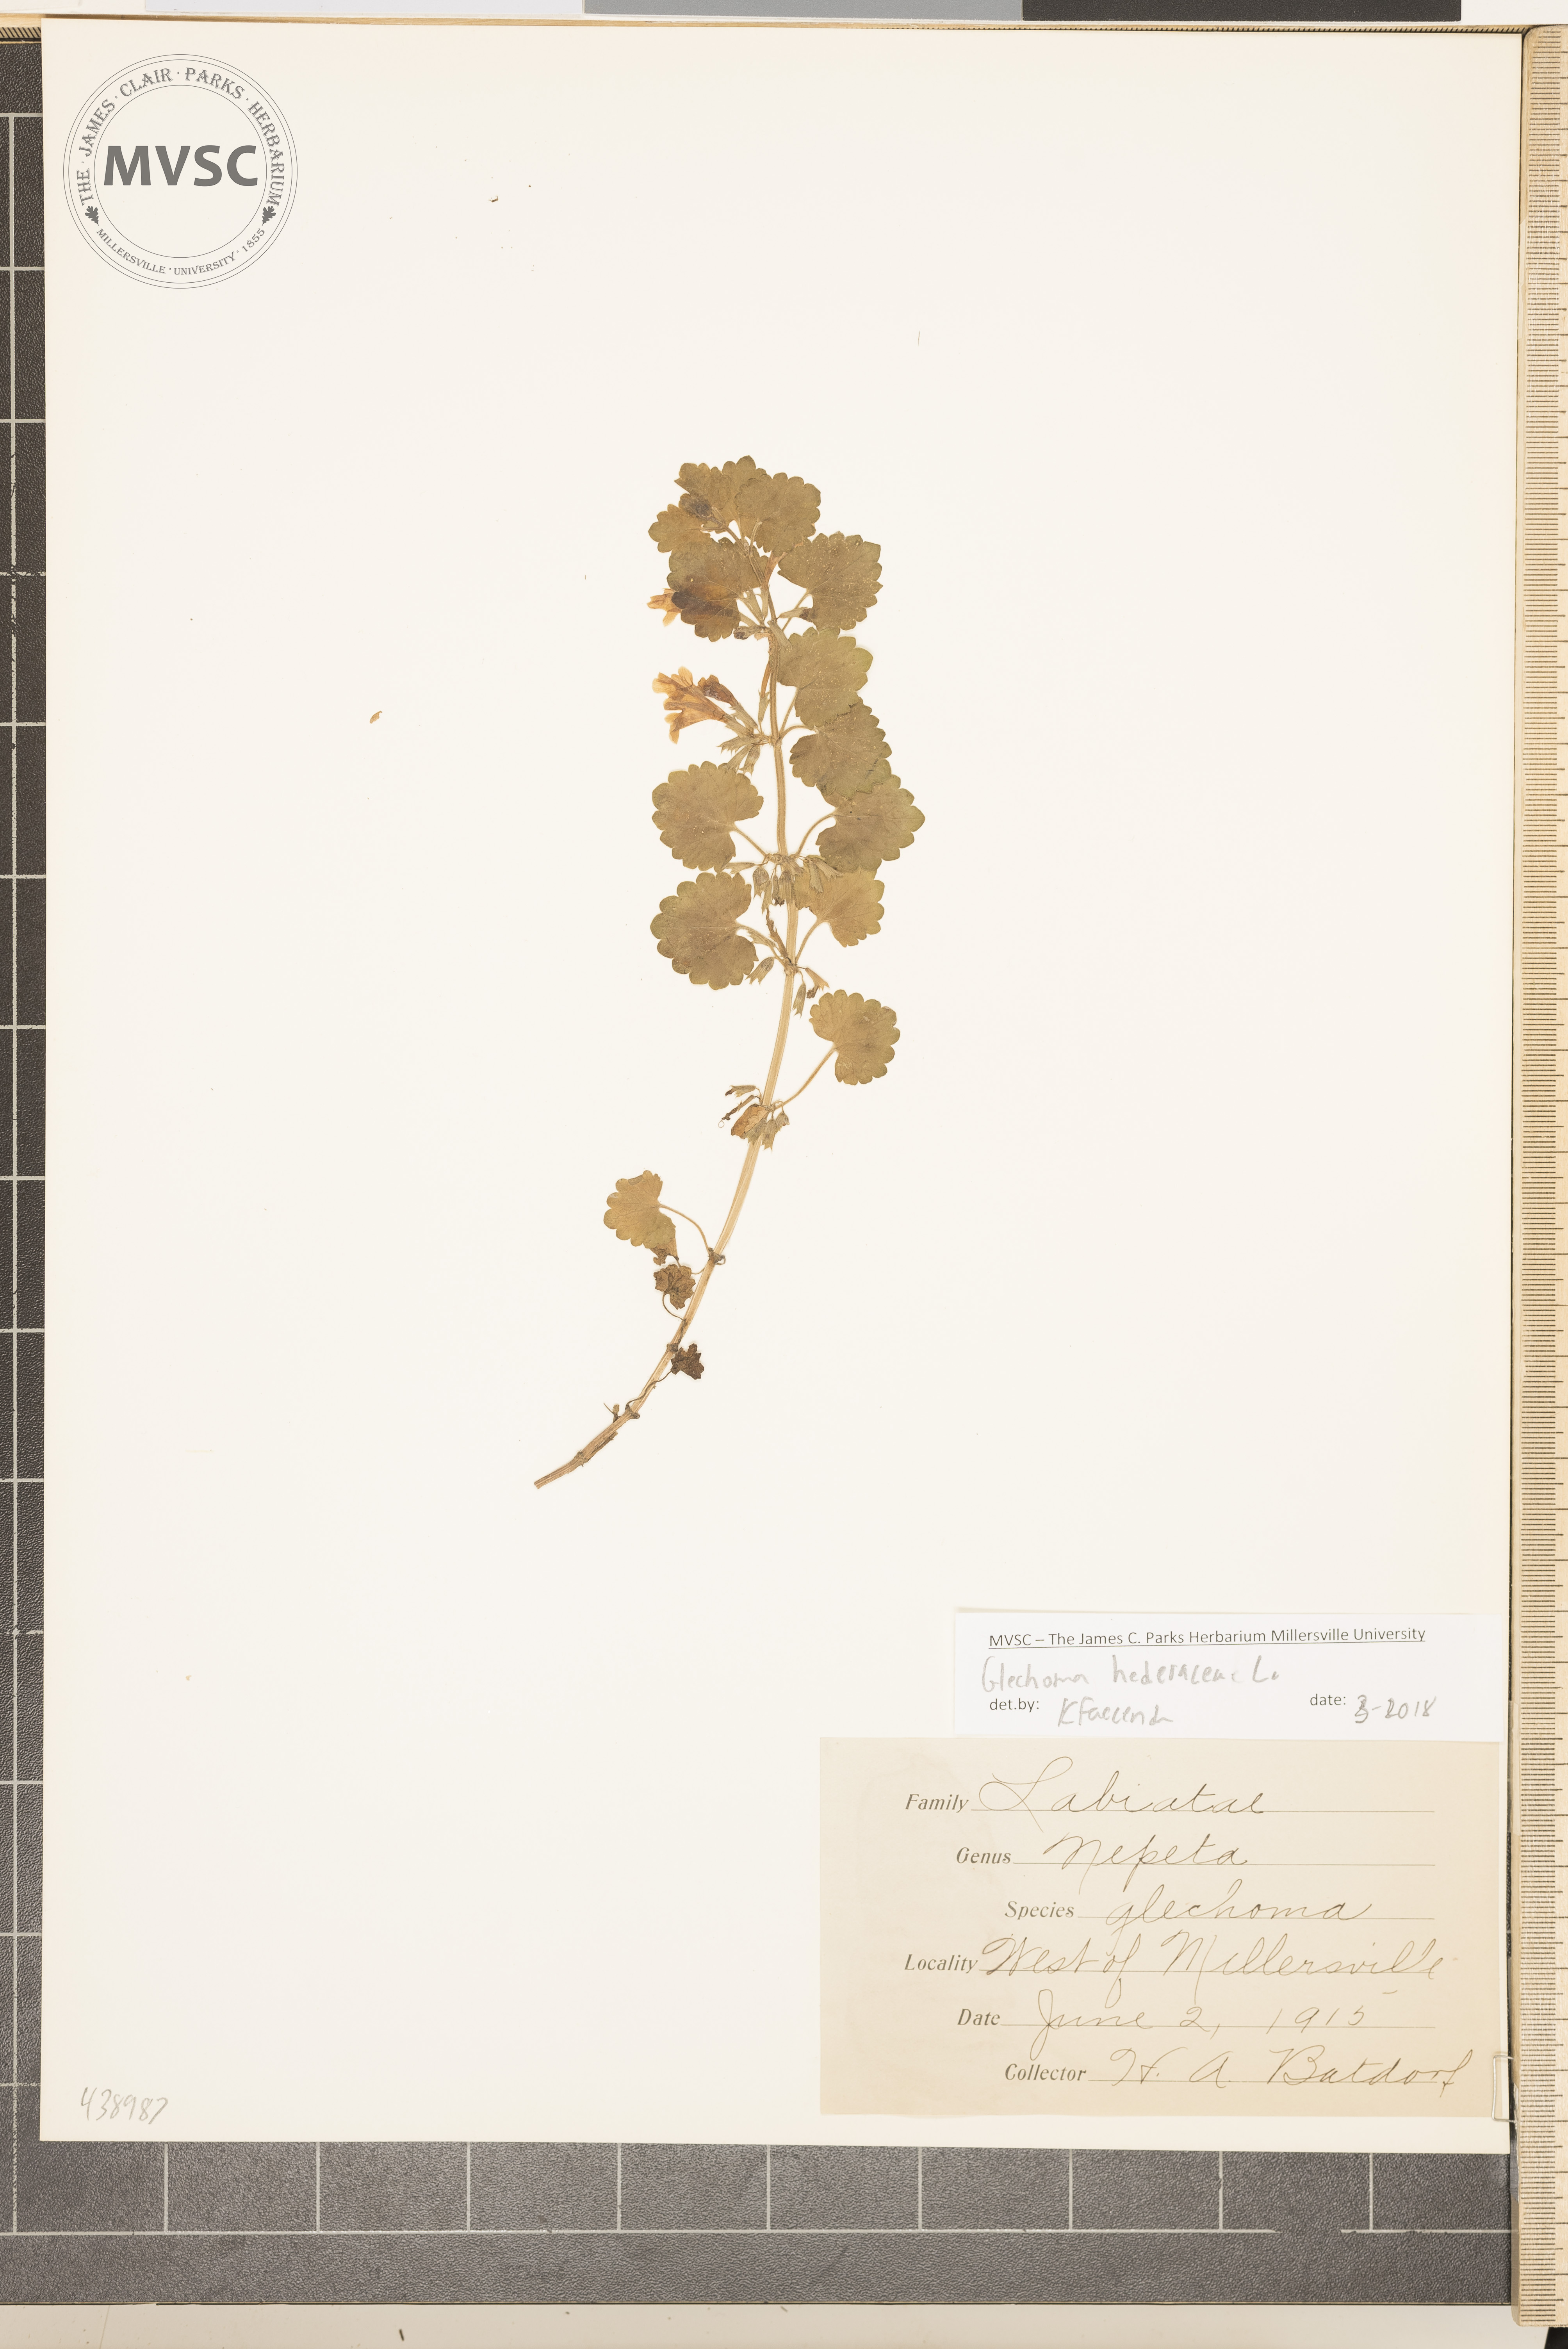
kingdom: Plantae
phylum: Tracheophyta
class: Magnoliopsida
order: Lamiales
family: Lamiaceae
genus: Glechoma
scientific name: Glechoma hederacea
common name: Ground ivy
